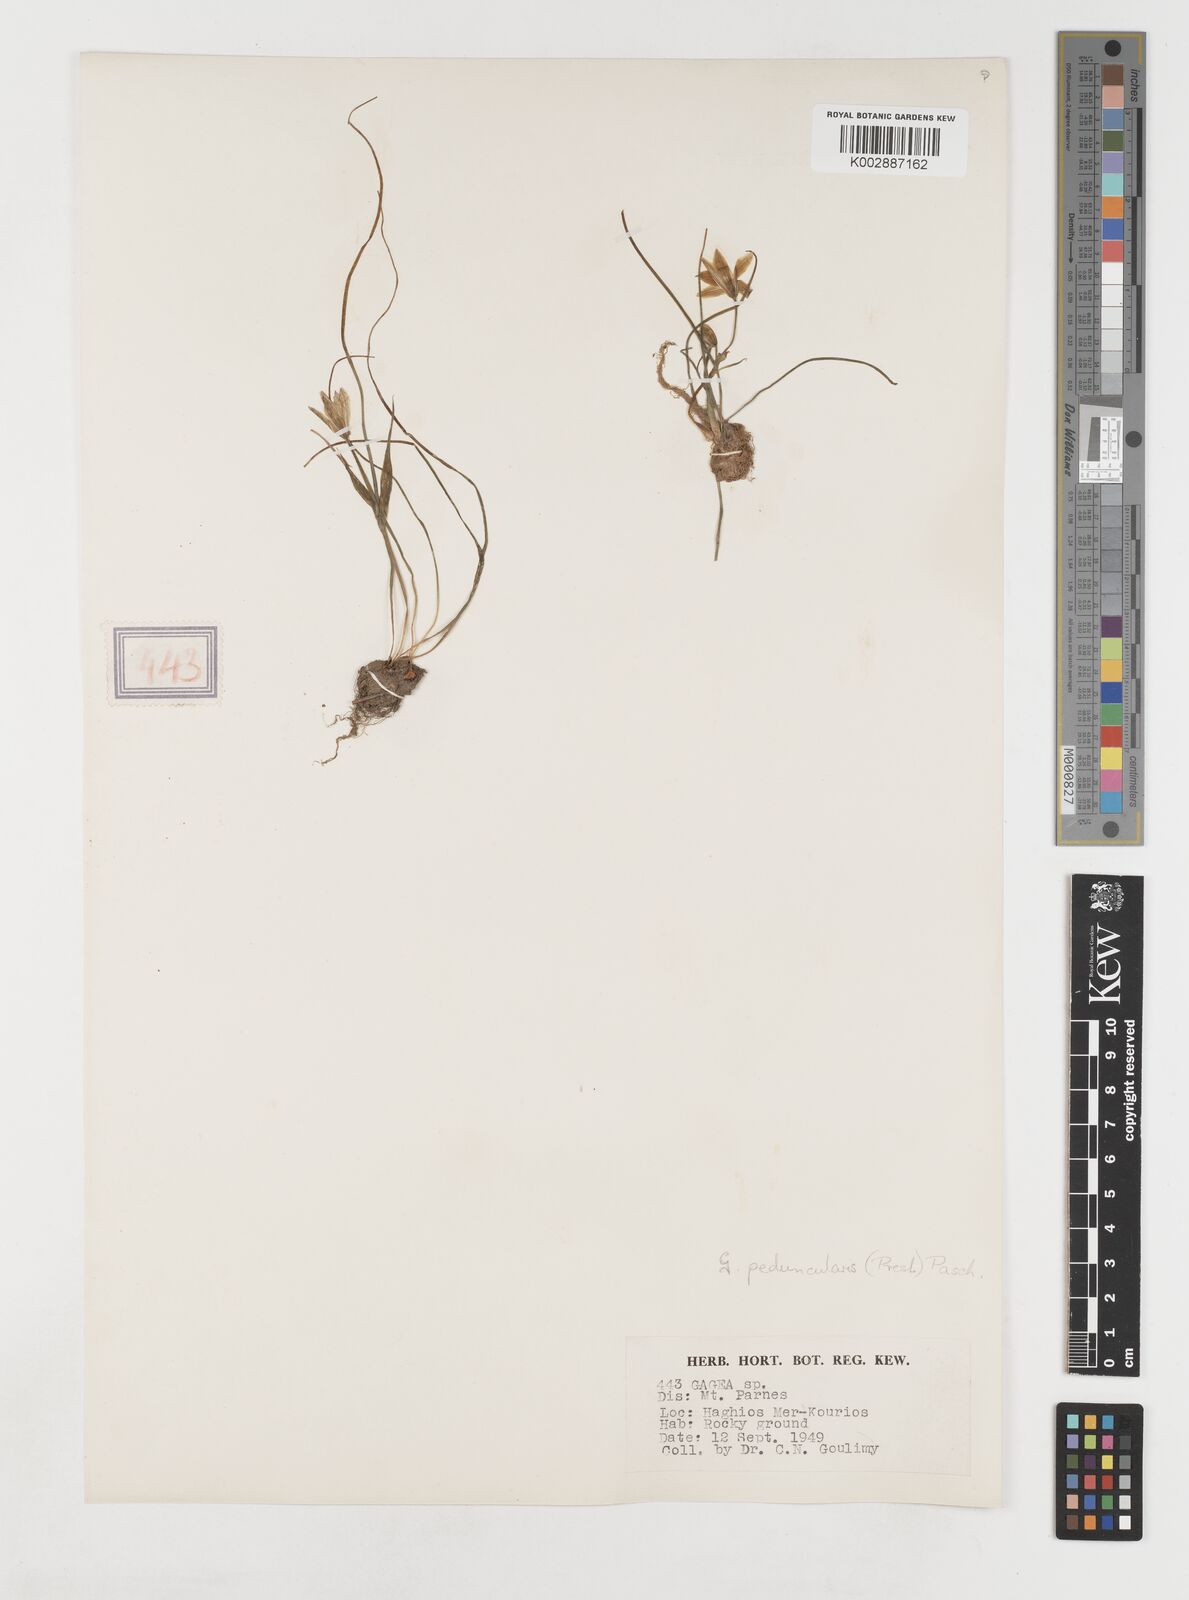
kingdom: Plantae
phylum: Tracheophyta
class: Liliopsida
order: Liliales
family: Liliaceae
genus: Gagea
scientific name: Gagea peduncularis
